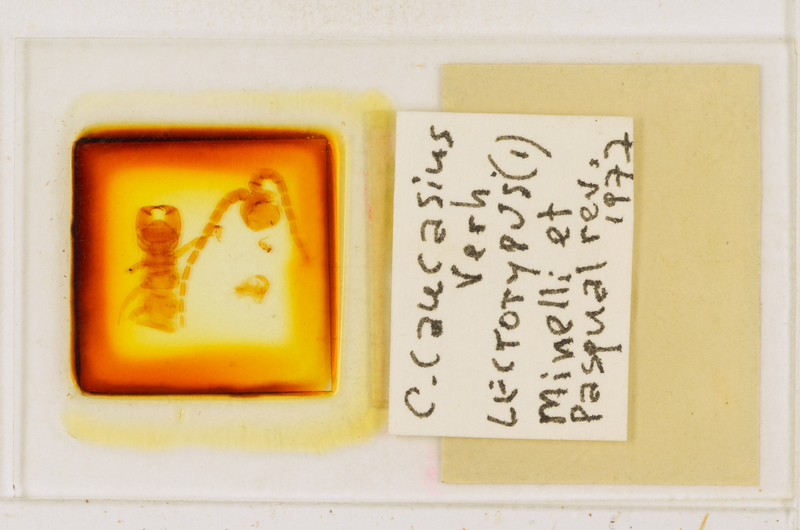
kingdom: Animalia
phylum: Arthropoda
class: Chilopoda
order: Scolopendromorpha
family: Cryptopidae
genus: Cryptops
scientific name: Cryptops caucasius
